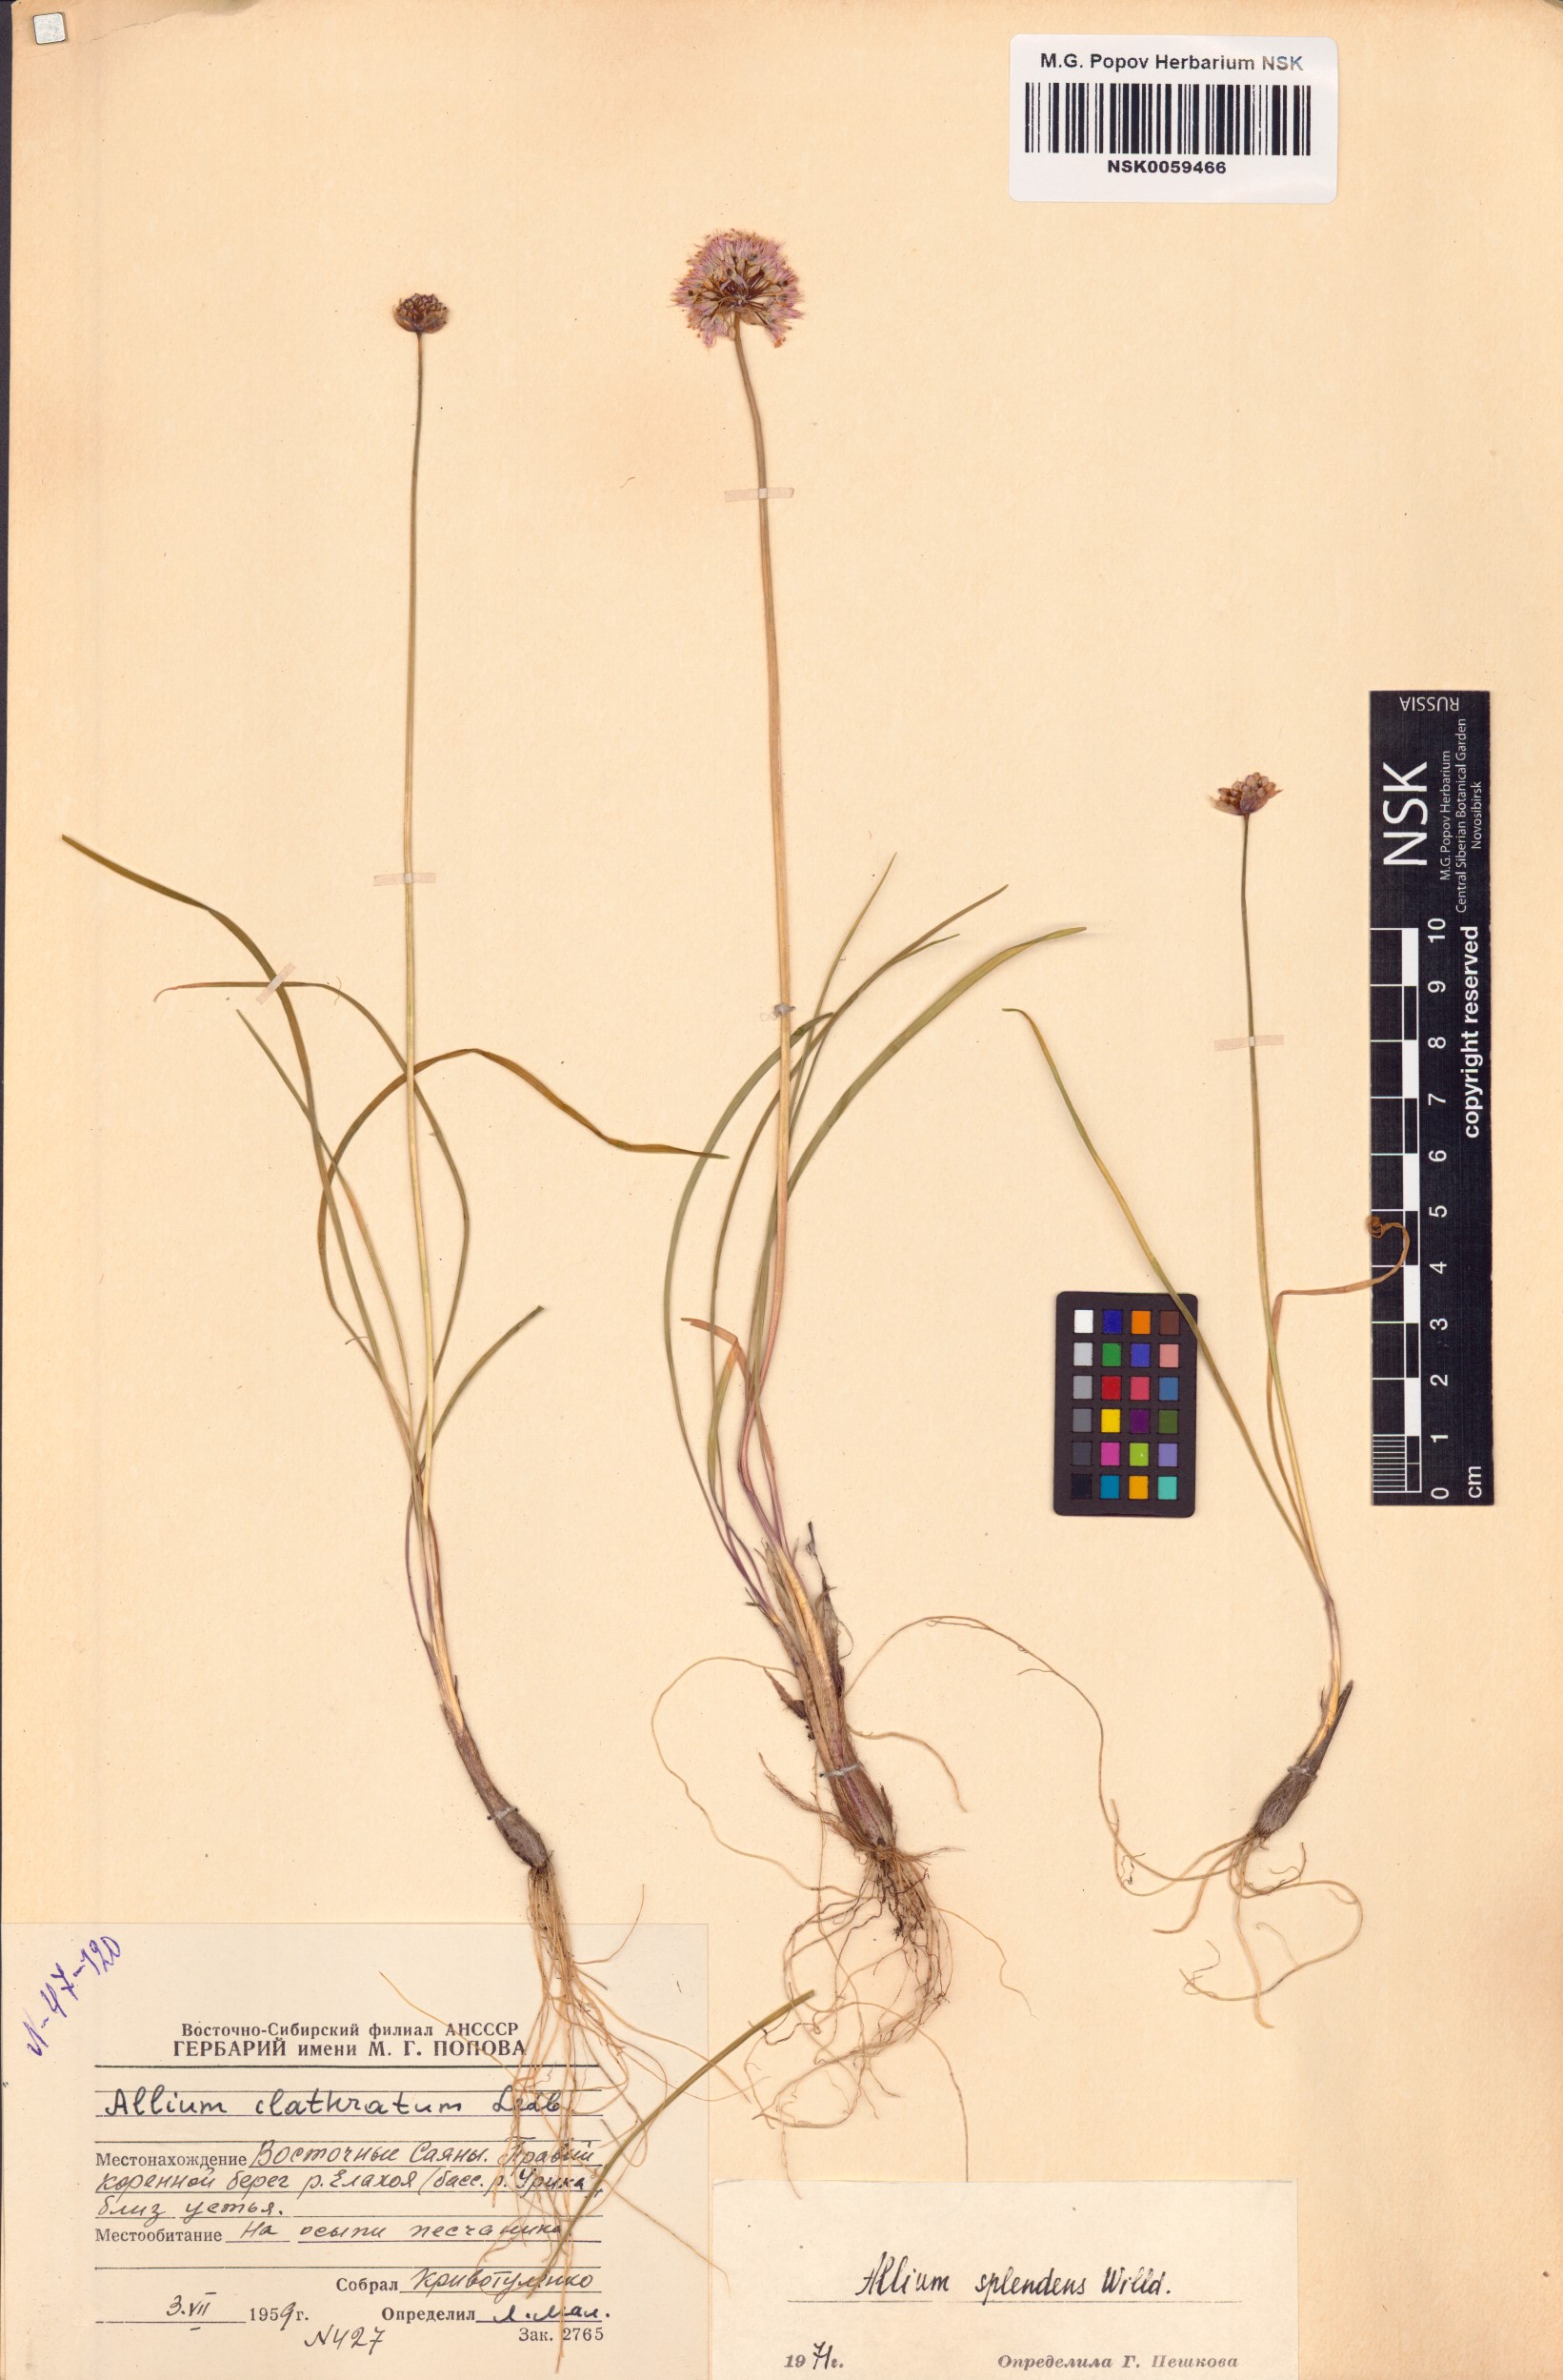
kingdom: Plantae
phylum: Tracheophyta
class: Liliopsida
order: Asparagales
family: Amaryllidaceae
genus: Allium
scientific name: Allium splendens
